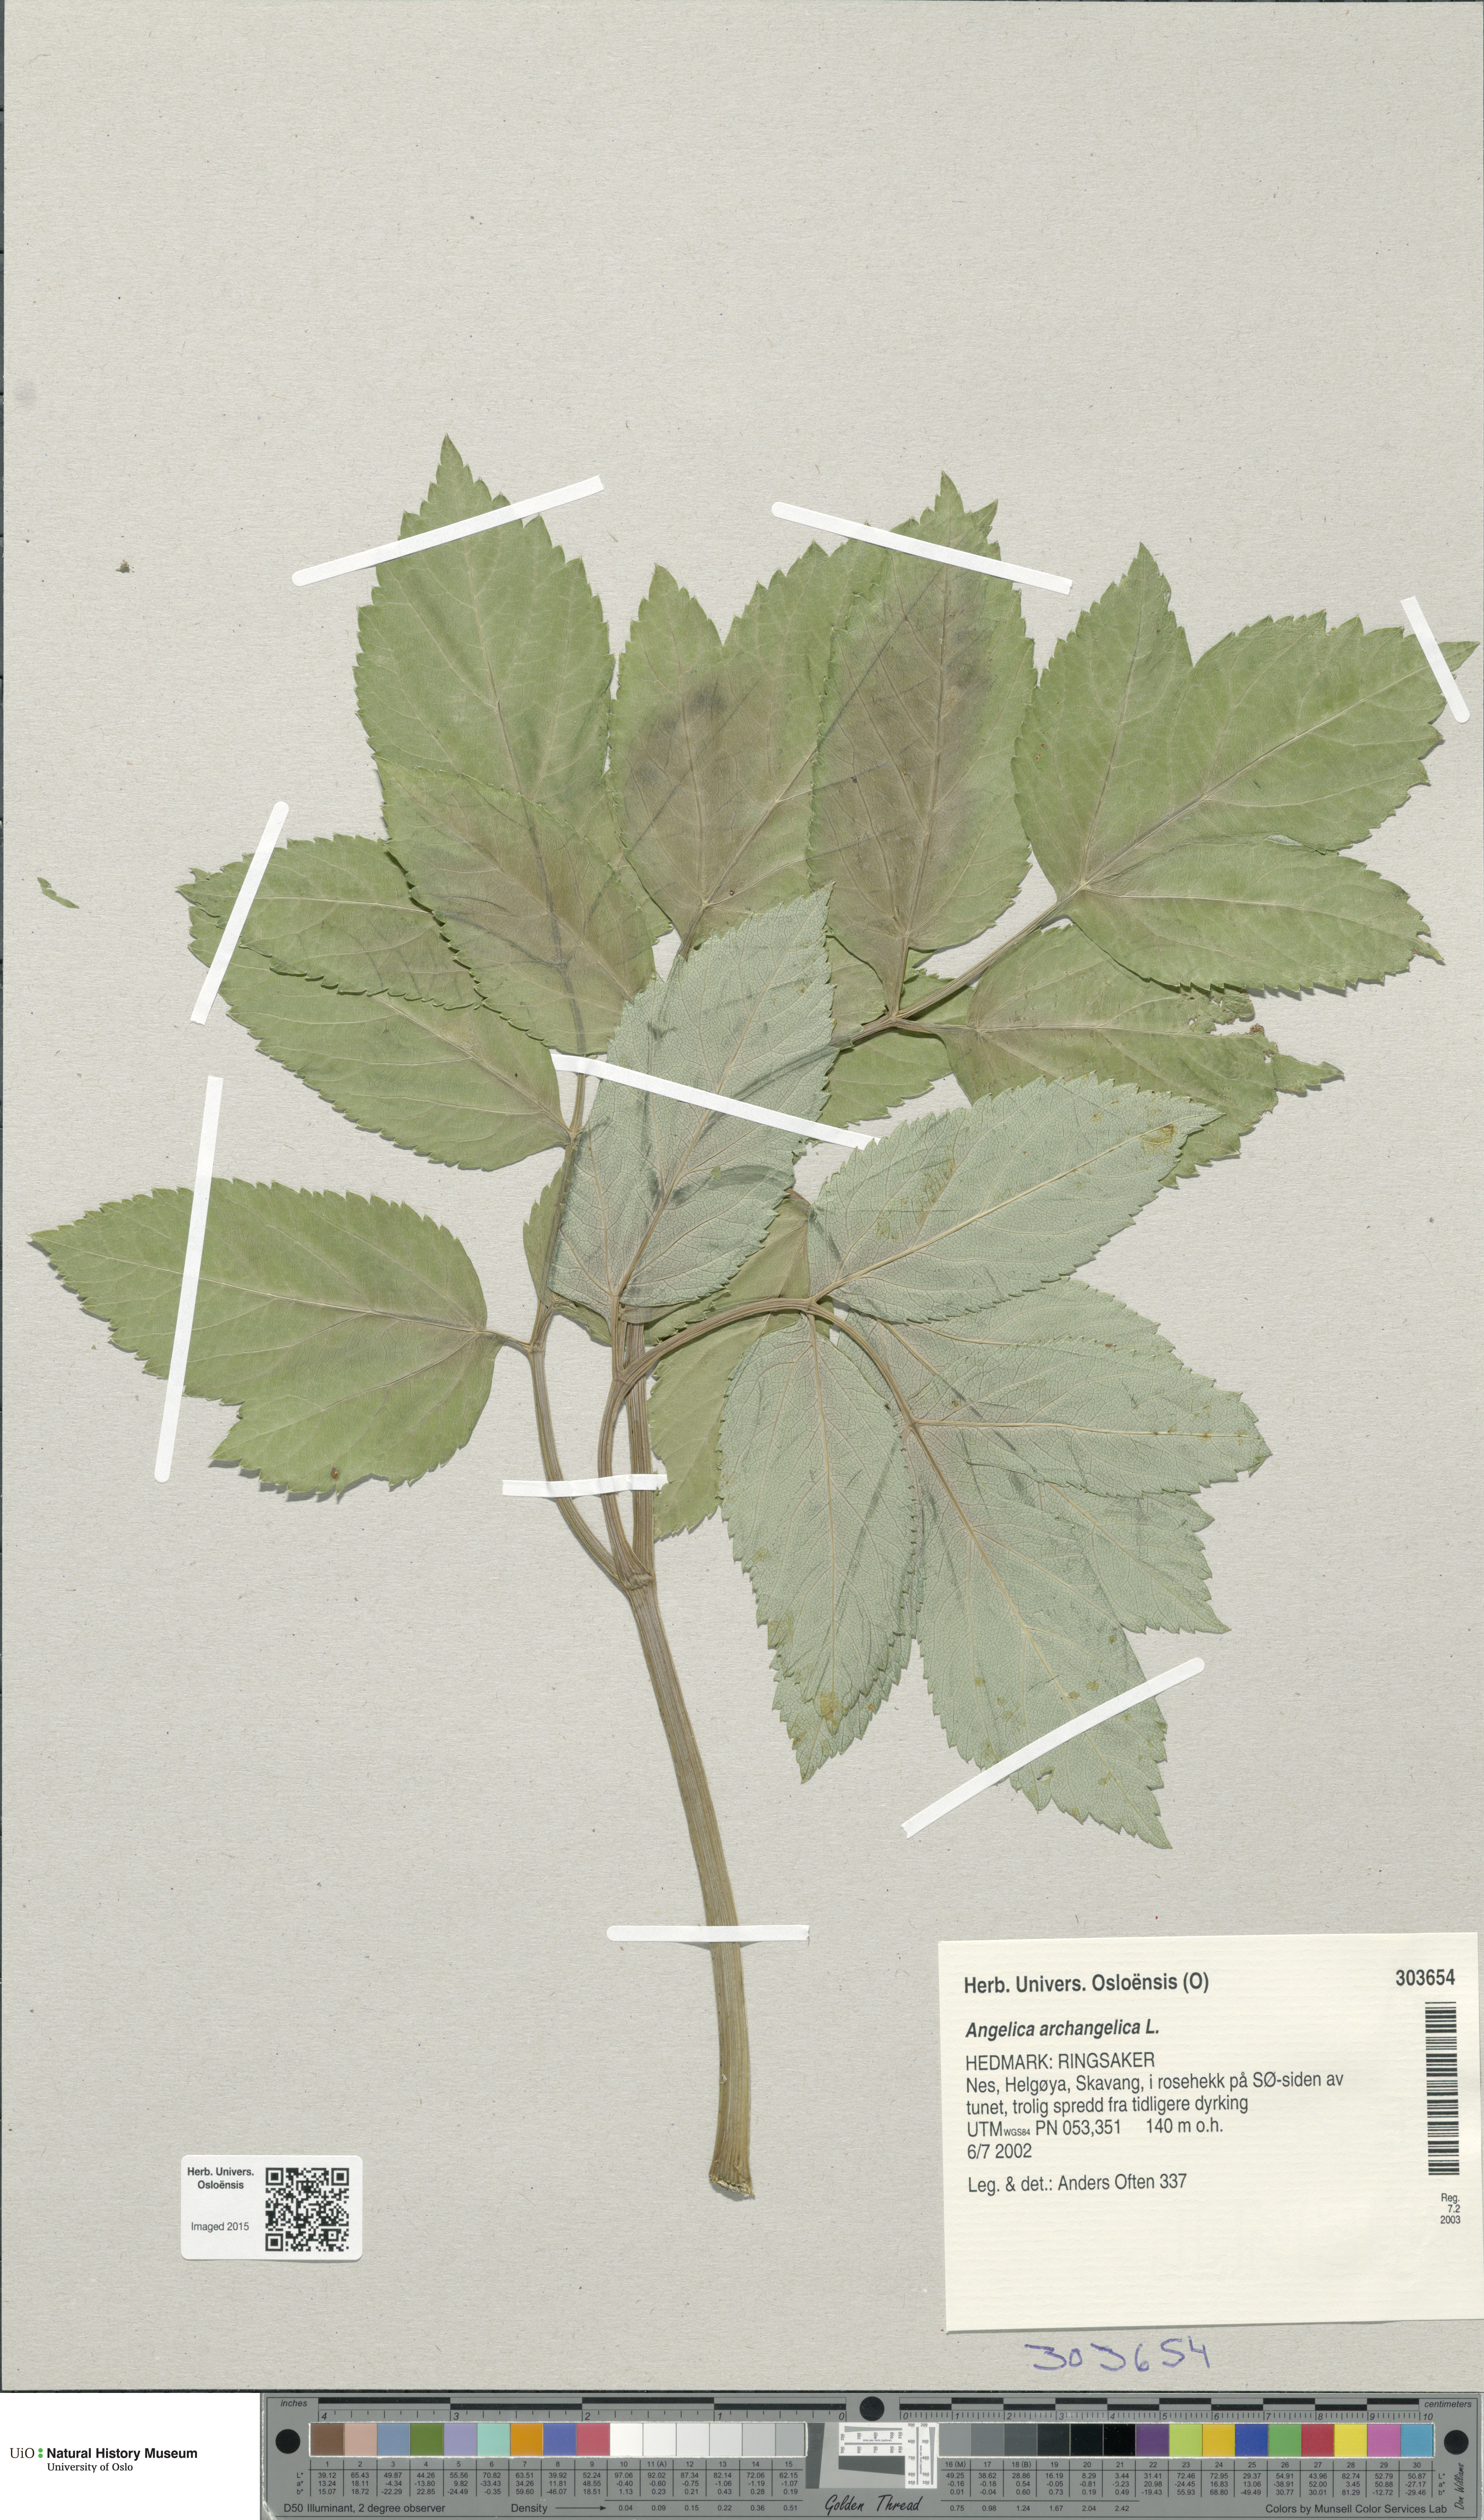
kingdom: Plantae
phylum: Tracheophyta
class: Magnoliopsida
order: Apiales
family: Apiaceae
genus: Angelica
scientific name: Angelica archangelica
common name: Garden angelica
